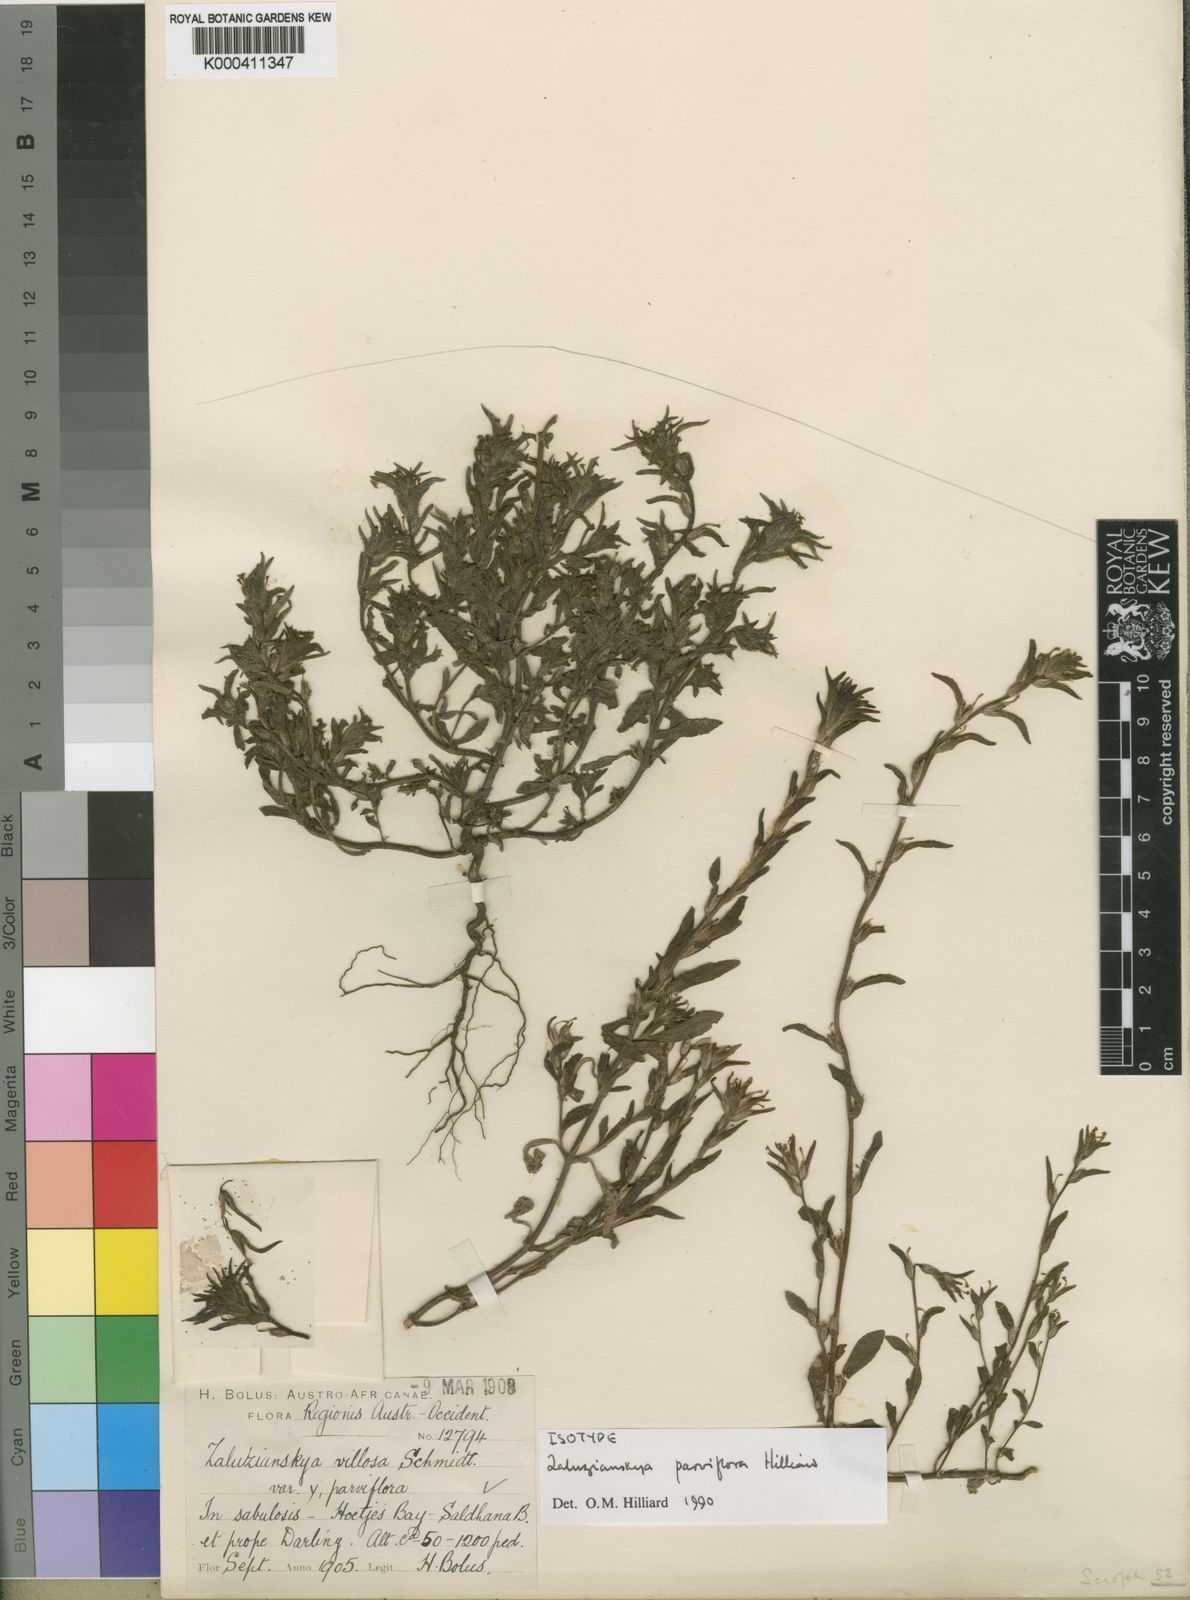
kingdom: Plantae
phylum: Tracheophyta
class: Magnoliopsida
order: Lamiales
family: Scrophulariaceae
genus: Zaluzianskya
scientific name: Zaluzianskya parviflora
